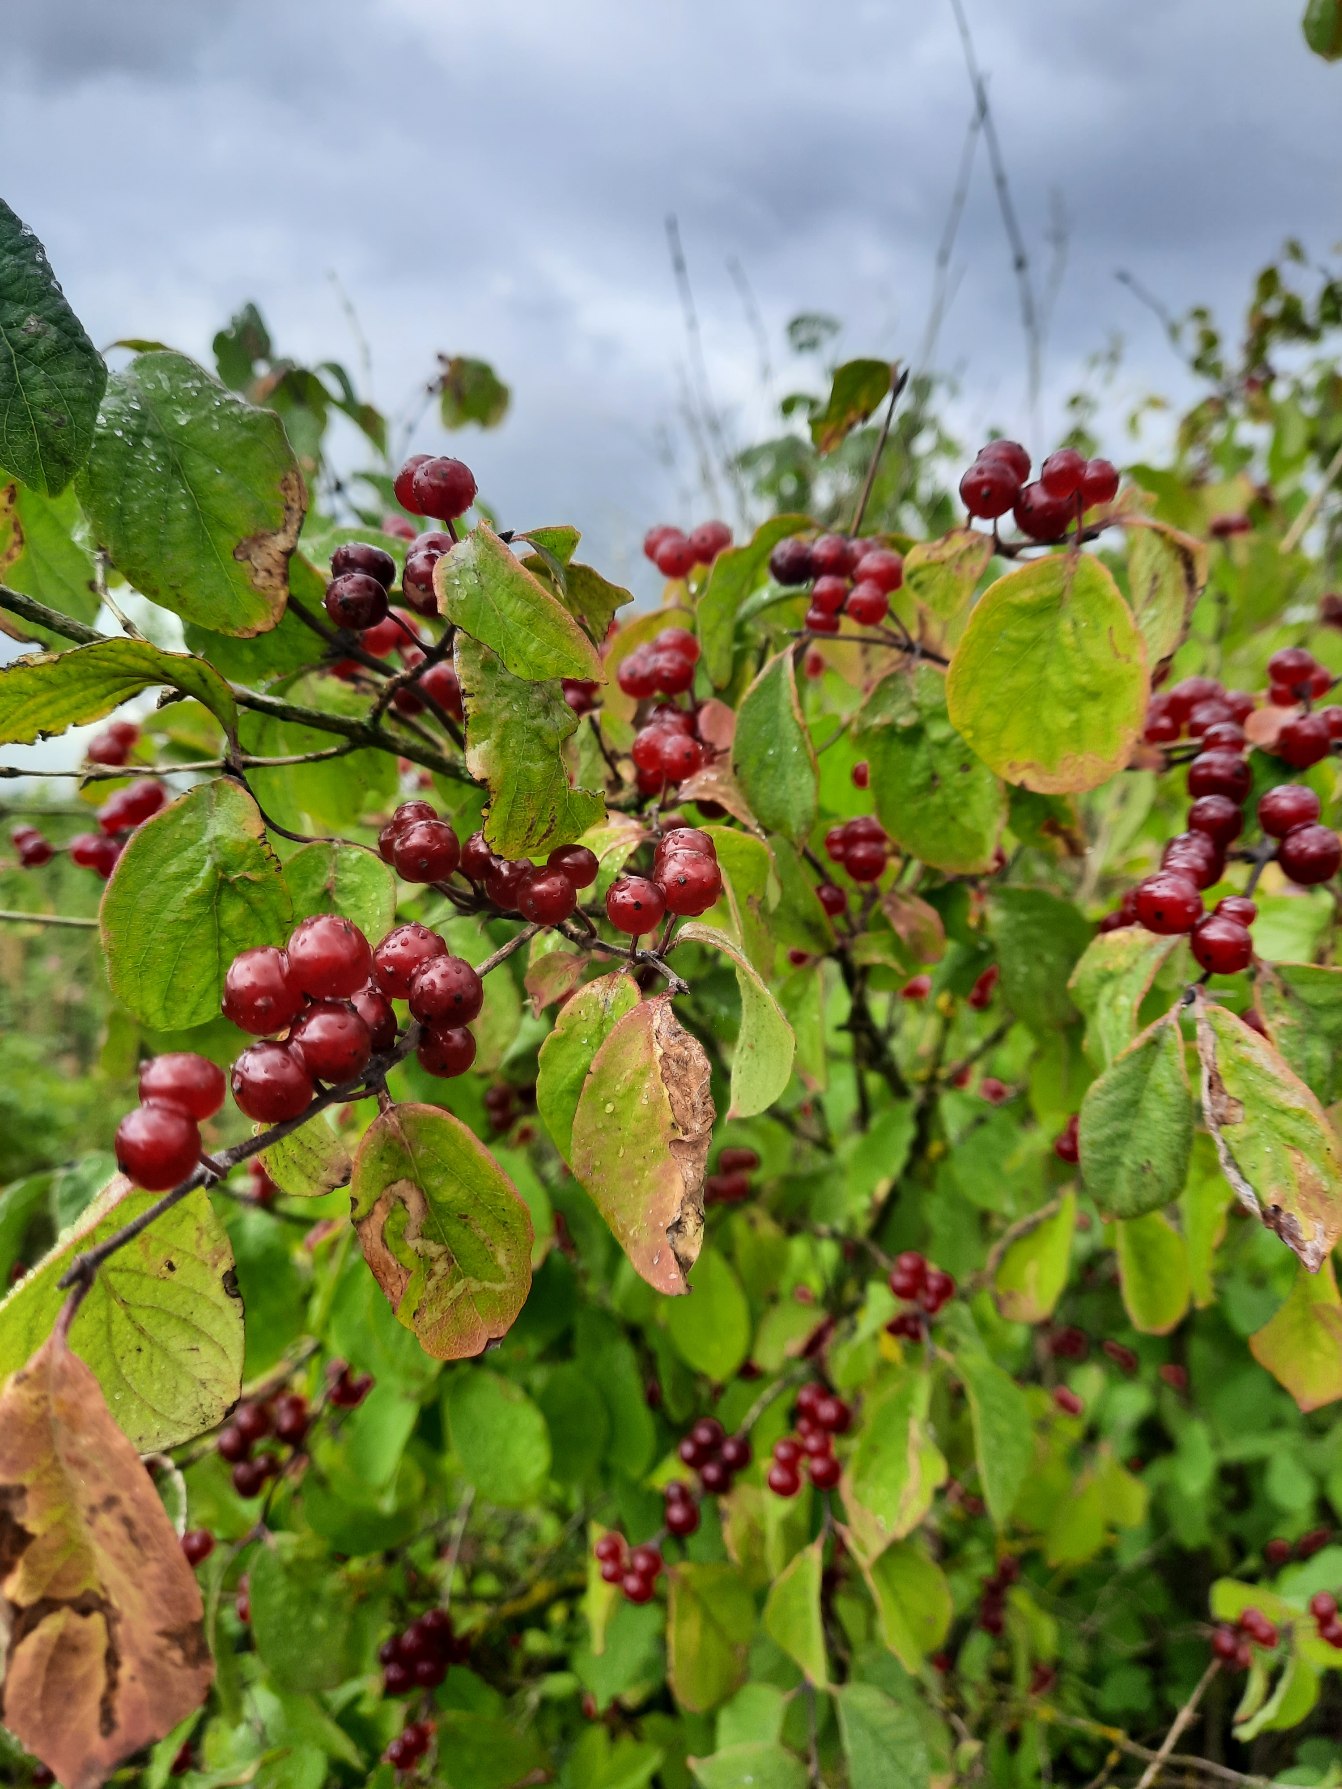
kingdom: Plantae
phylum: Tracheophyta
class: Magnoliopsida
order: Dipsacales
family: Caprifoliaceae
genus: Lonicera
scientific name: Lonicera xylosteum
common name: Dunet gedeblad
